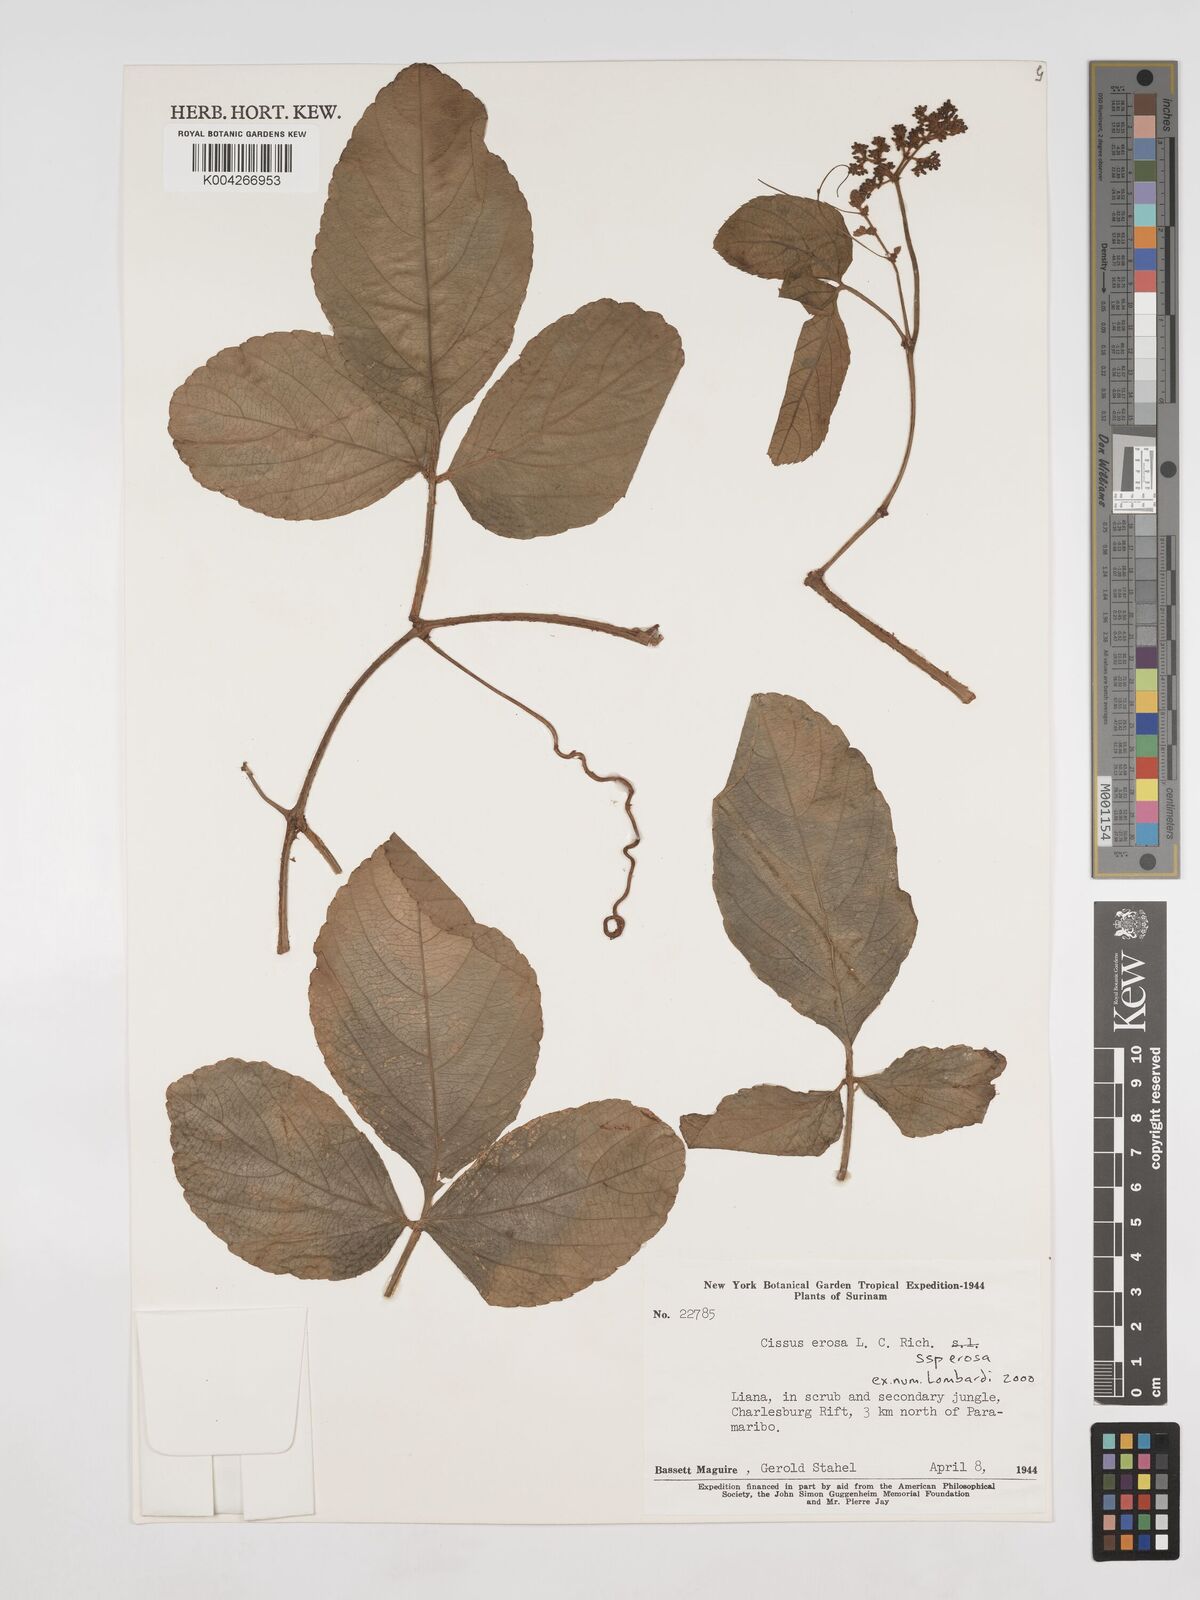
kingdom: Plantae
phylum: Tracheophyta
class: Magnoliopsida
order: Vitales
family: Vitaceae
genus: Cissus
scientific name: Cissus erosa
